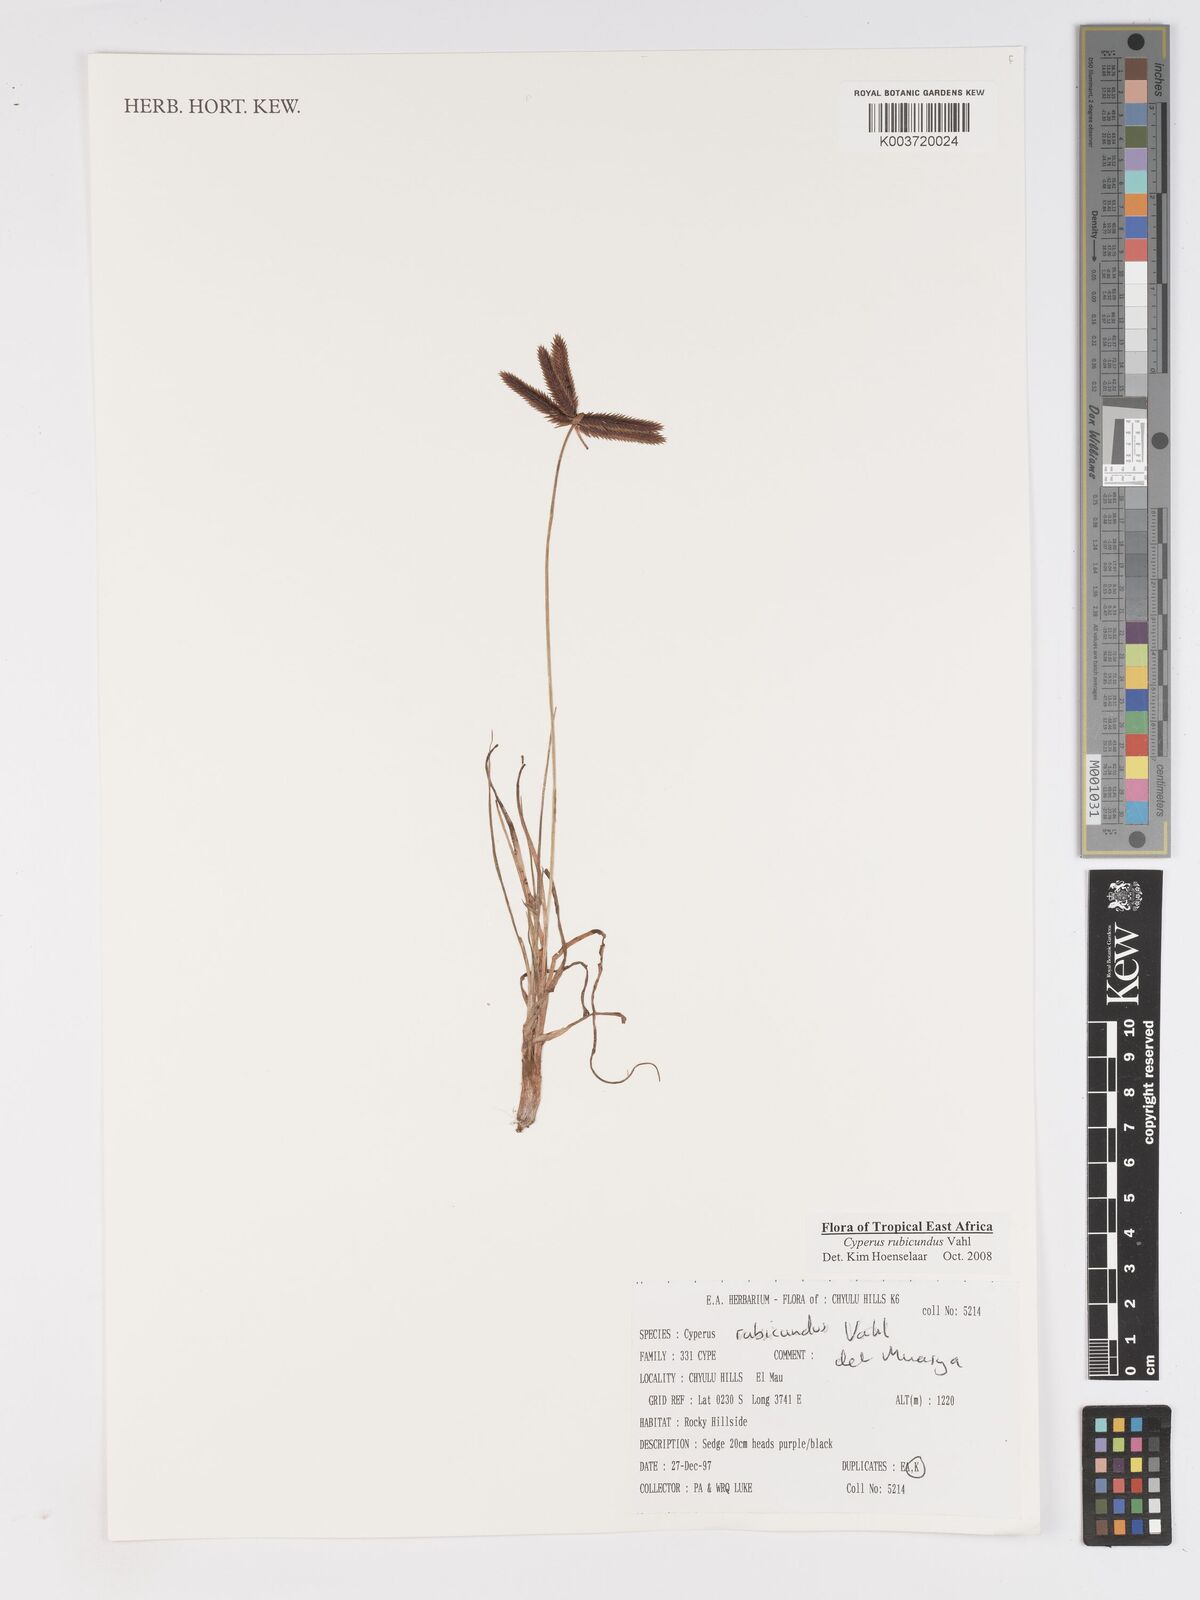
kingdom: Plantae
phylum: Tracheophyta
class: Liliopsida
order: Poales
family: Cyperaceae
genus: Cyperus
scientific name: Cyperus rubicundus
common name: Coco-grass
